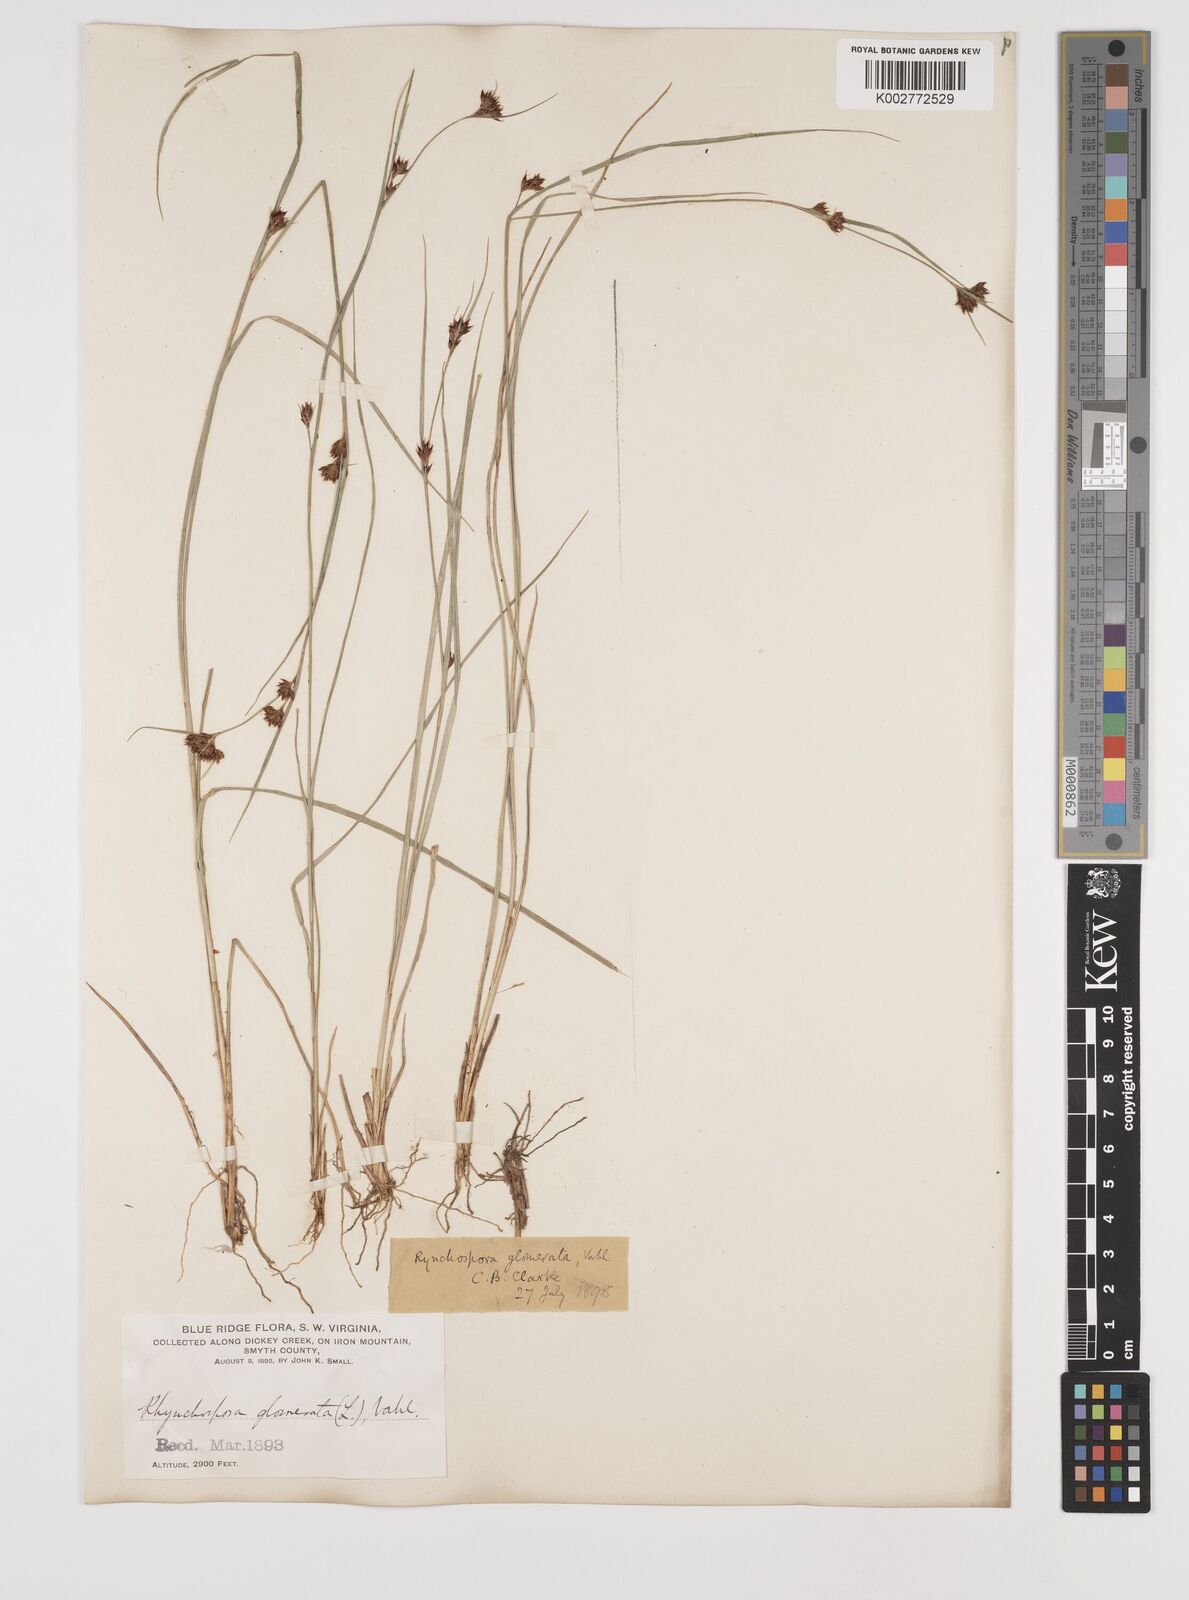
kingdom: Plantae
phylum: Tracheophyta
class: Liliopsida
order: Poales
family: Cyperaceae
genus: Rhynchospora
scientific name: Rhynchospora glomerata
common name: Cluster beak sedge
